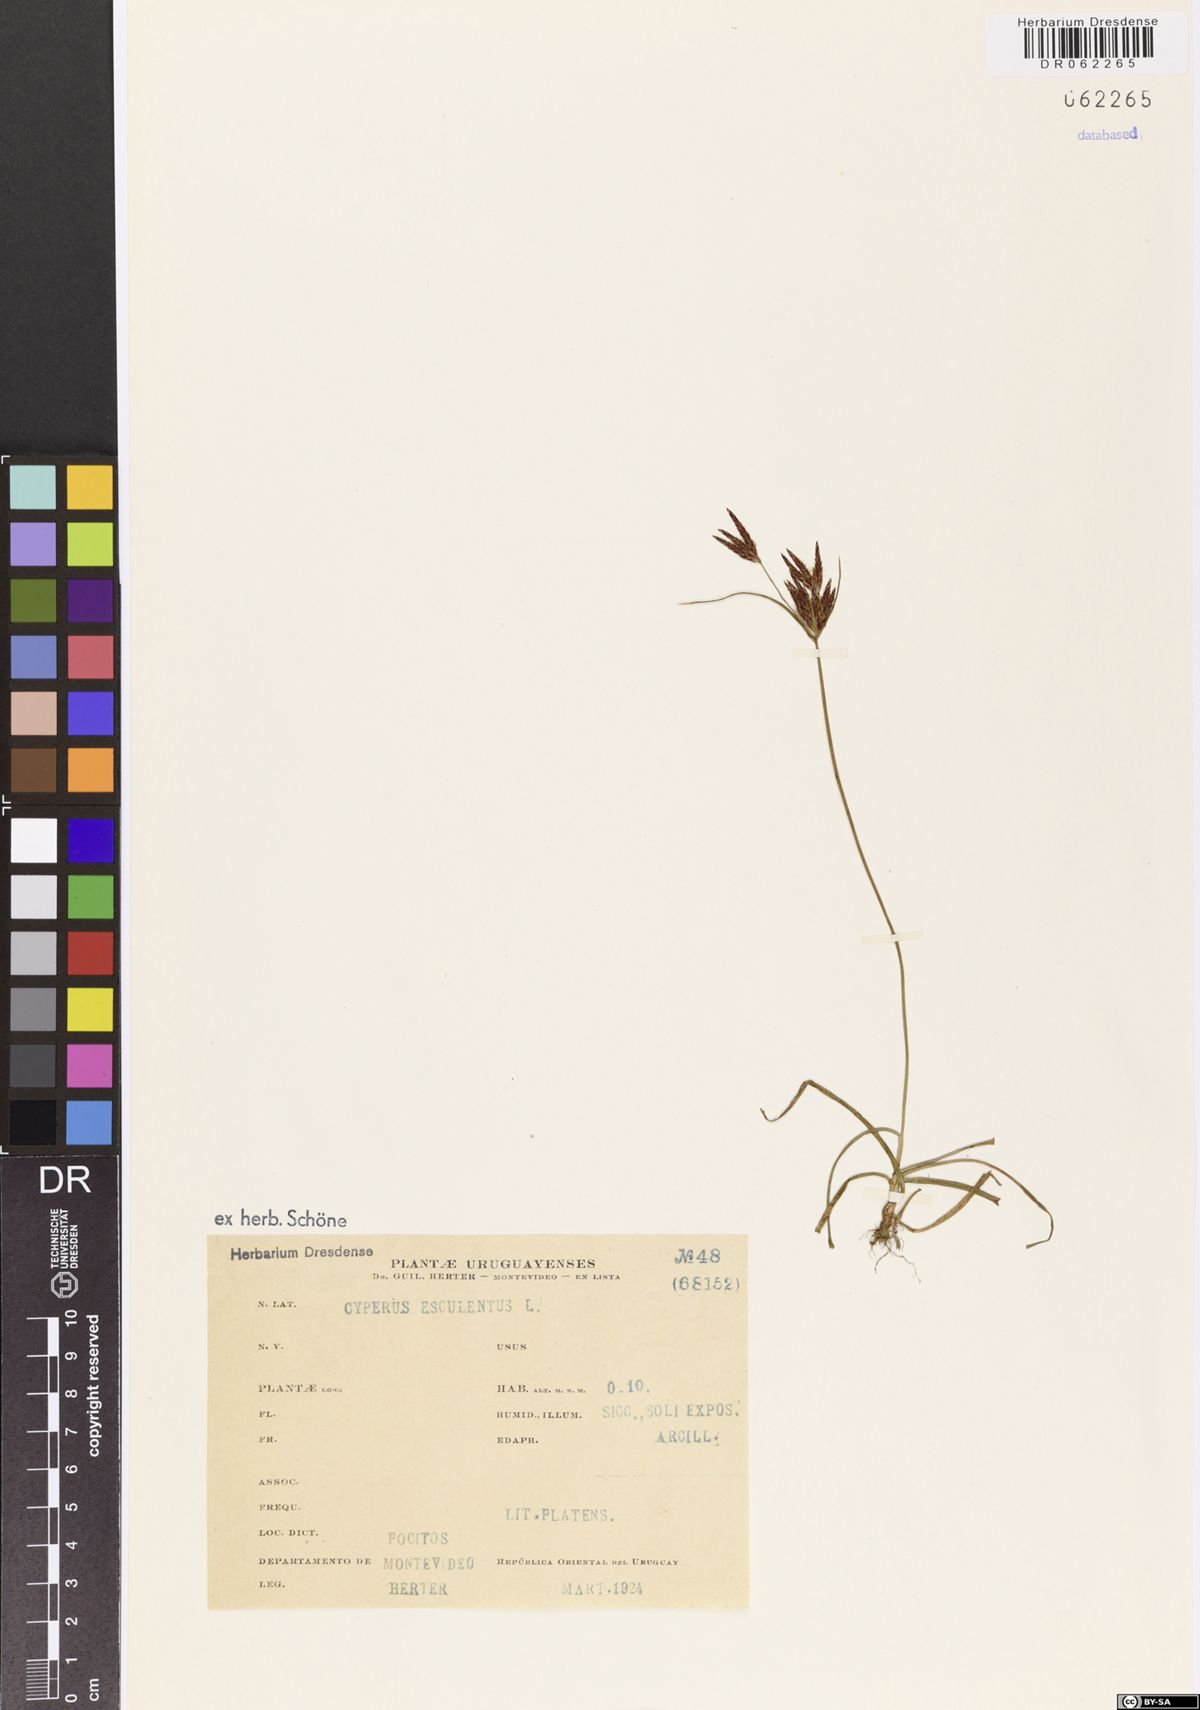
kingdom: Plantae
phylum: Tracheophyta
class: Liliopsida
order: Poales
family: Cyperaceae
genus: Cyperus
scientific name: Cyperus esculentus
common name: Yellow nutsedge
